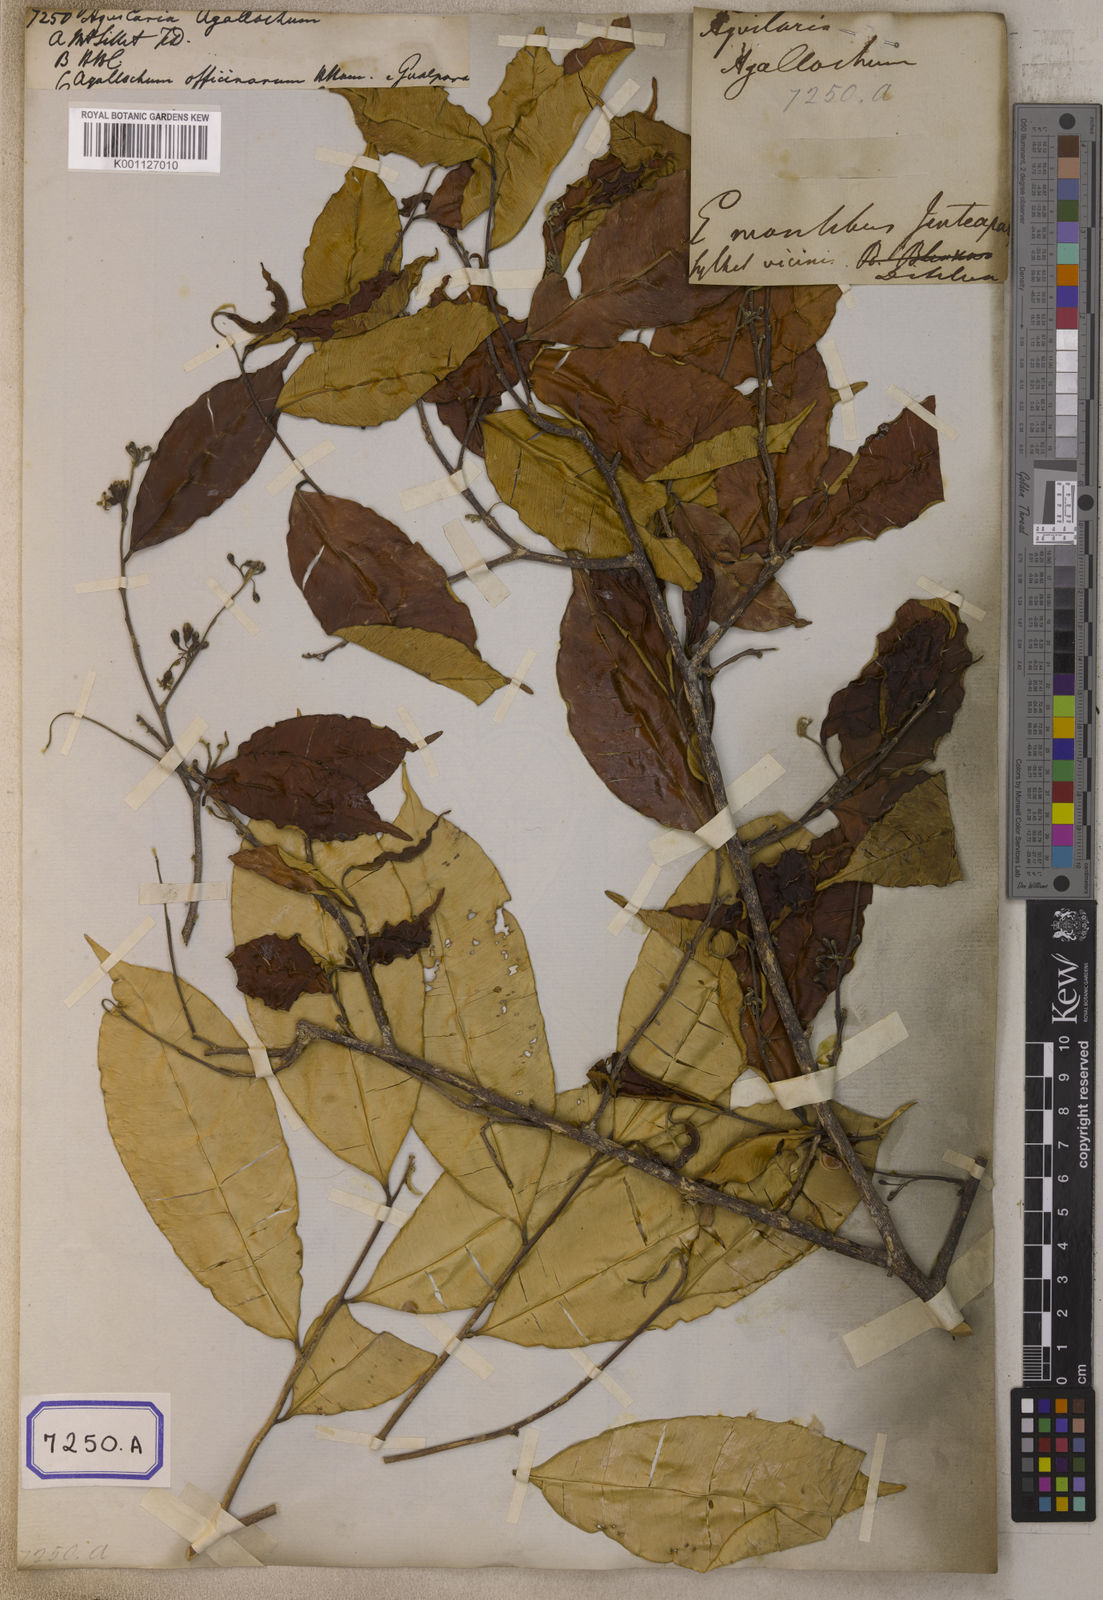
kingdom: Plantae
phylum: Tracheophyta
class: Magnoliopsida
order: Malvales
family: Thymelaeaceae
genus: Aquilaria
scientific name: Aquilaria agallocha
